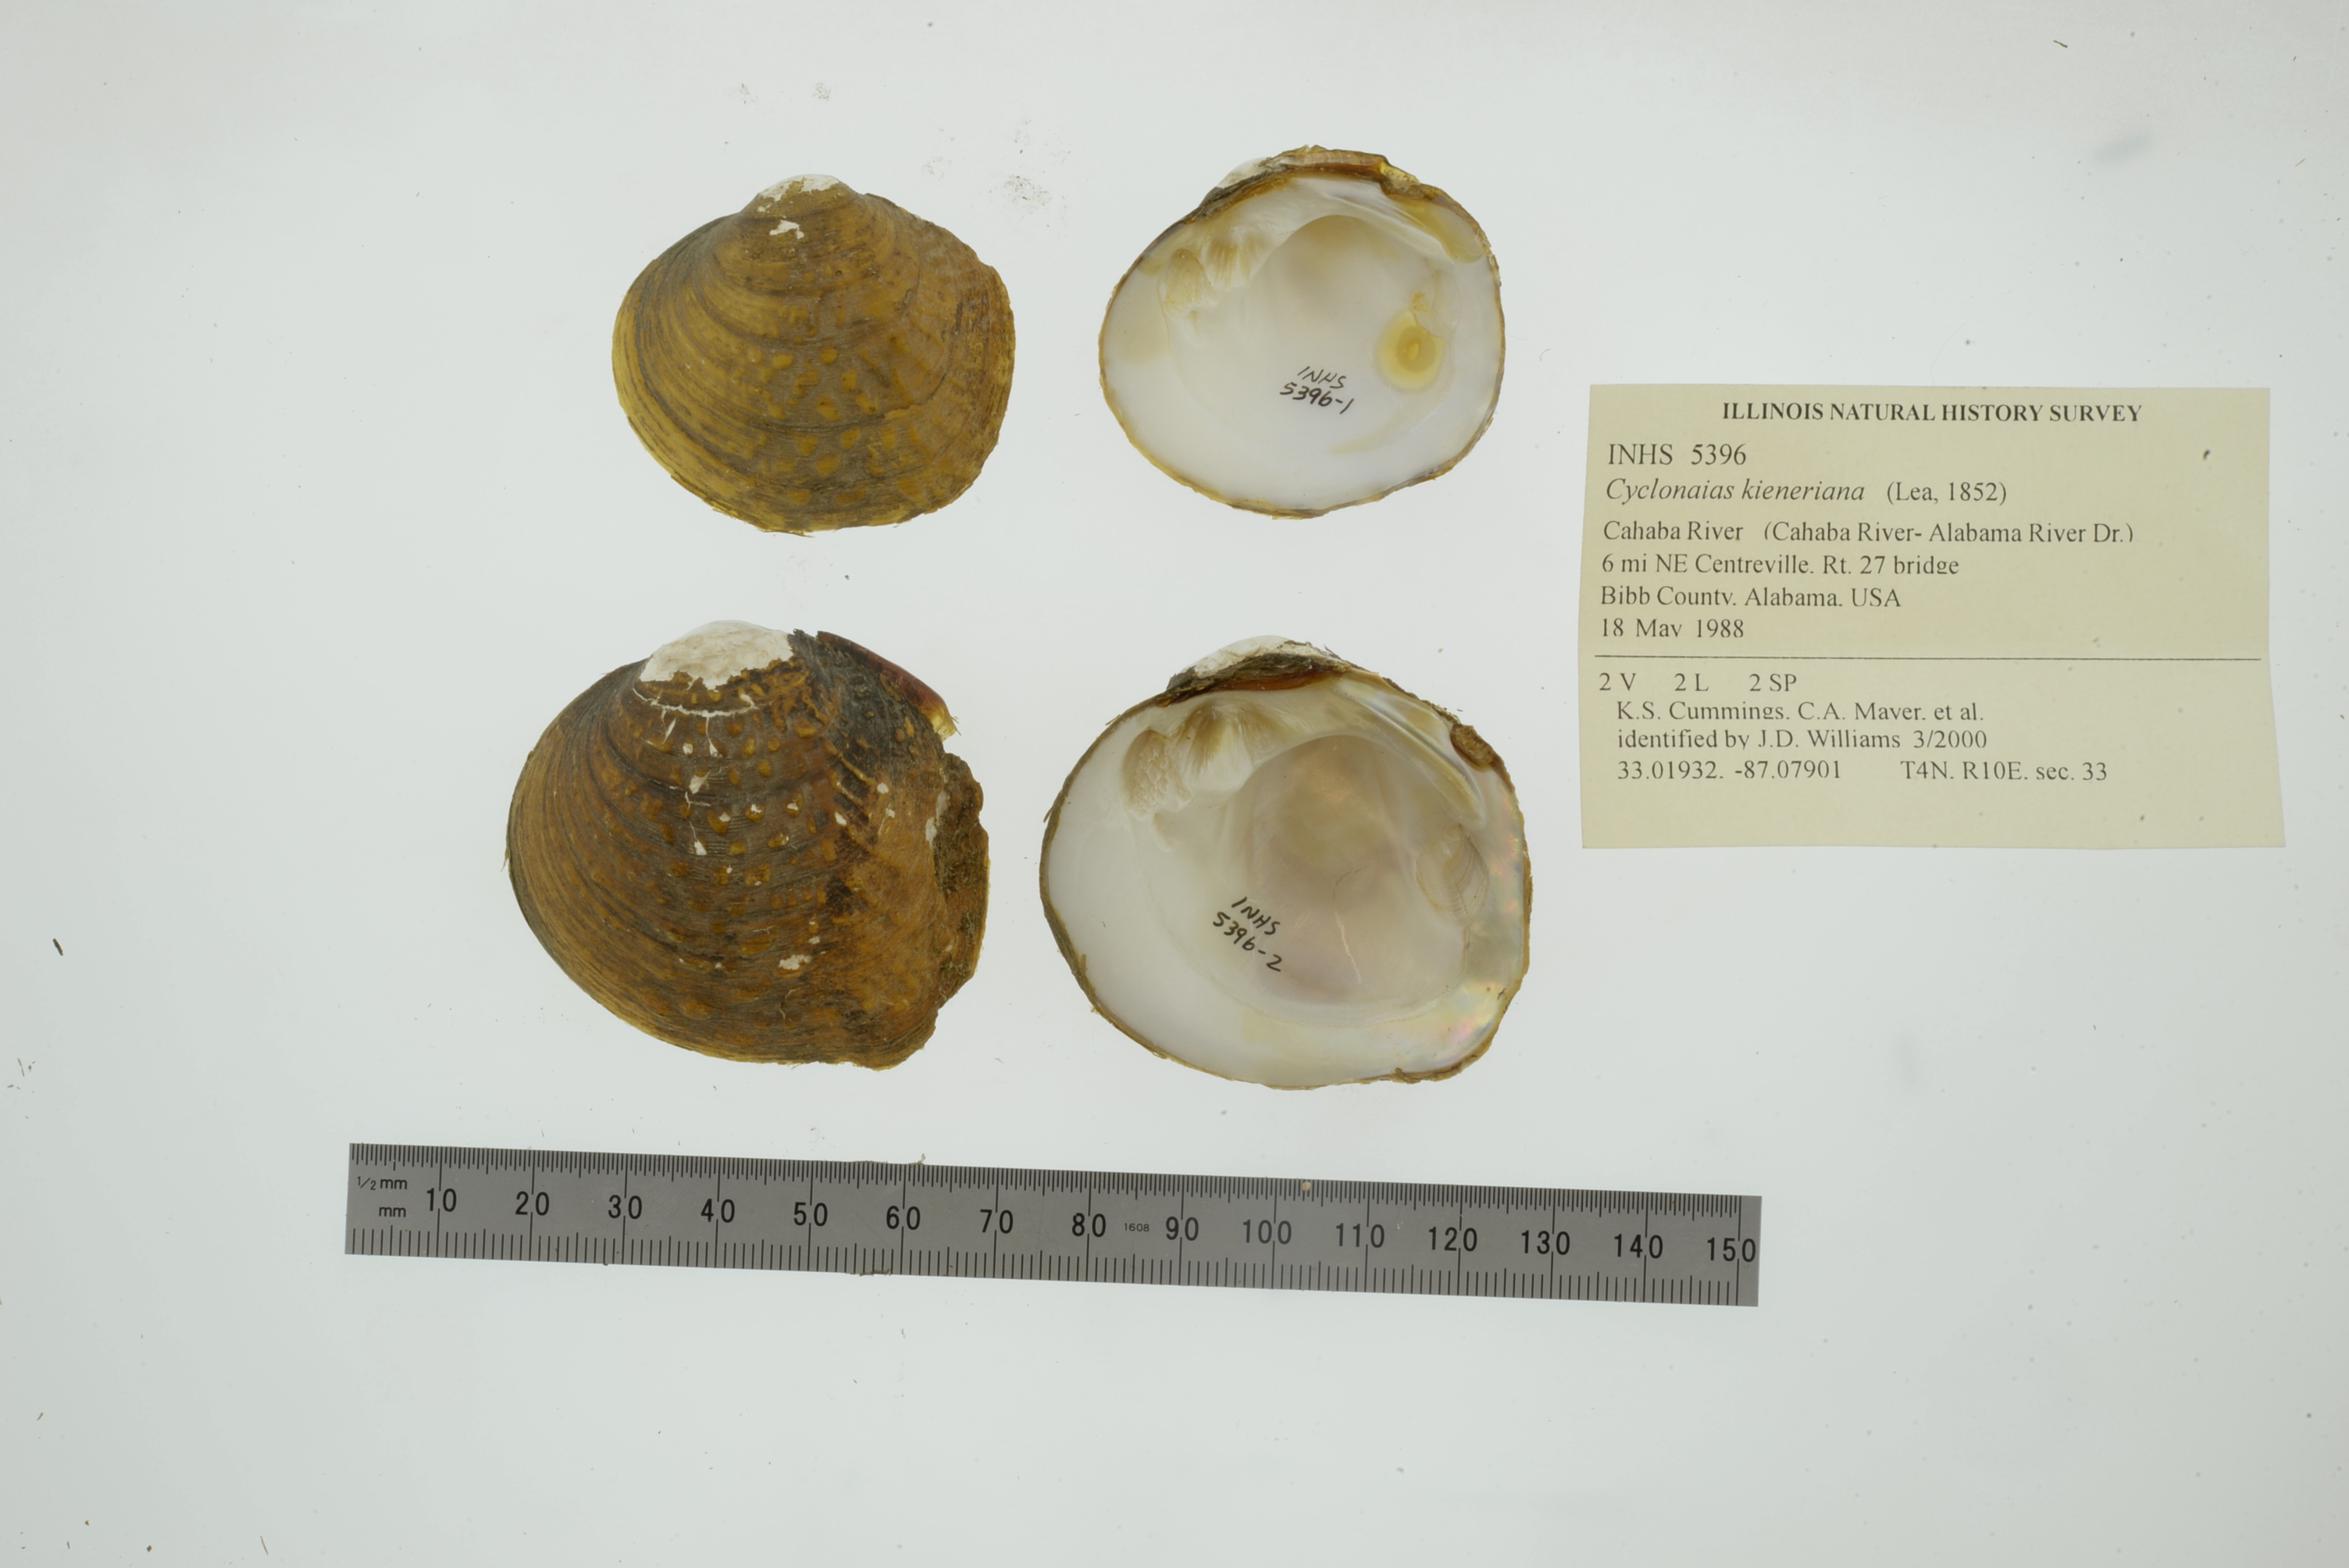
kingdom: Animalia
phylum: Mollusca
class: Bivalvia
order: Unionida
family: Unionidae
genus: Cyclonaias
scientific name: Cyclonaias kieneriana
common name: Coosa orb
